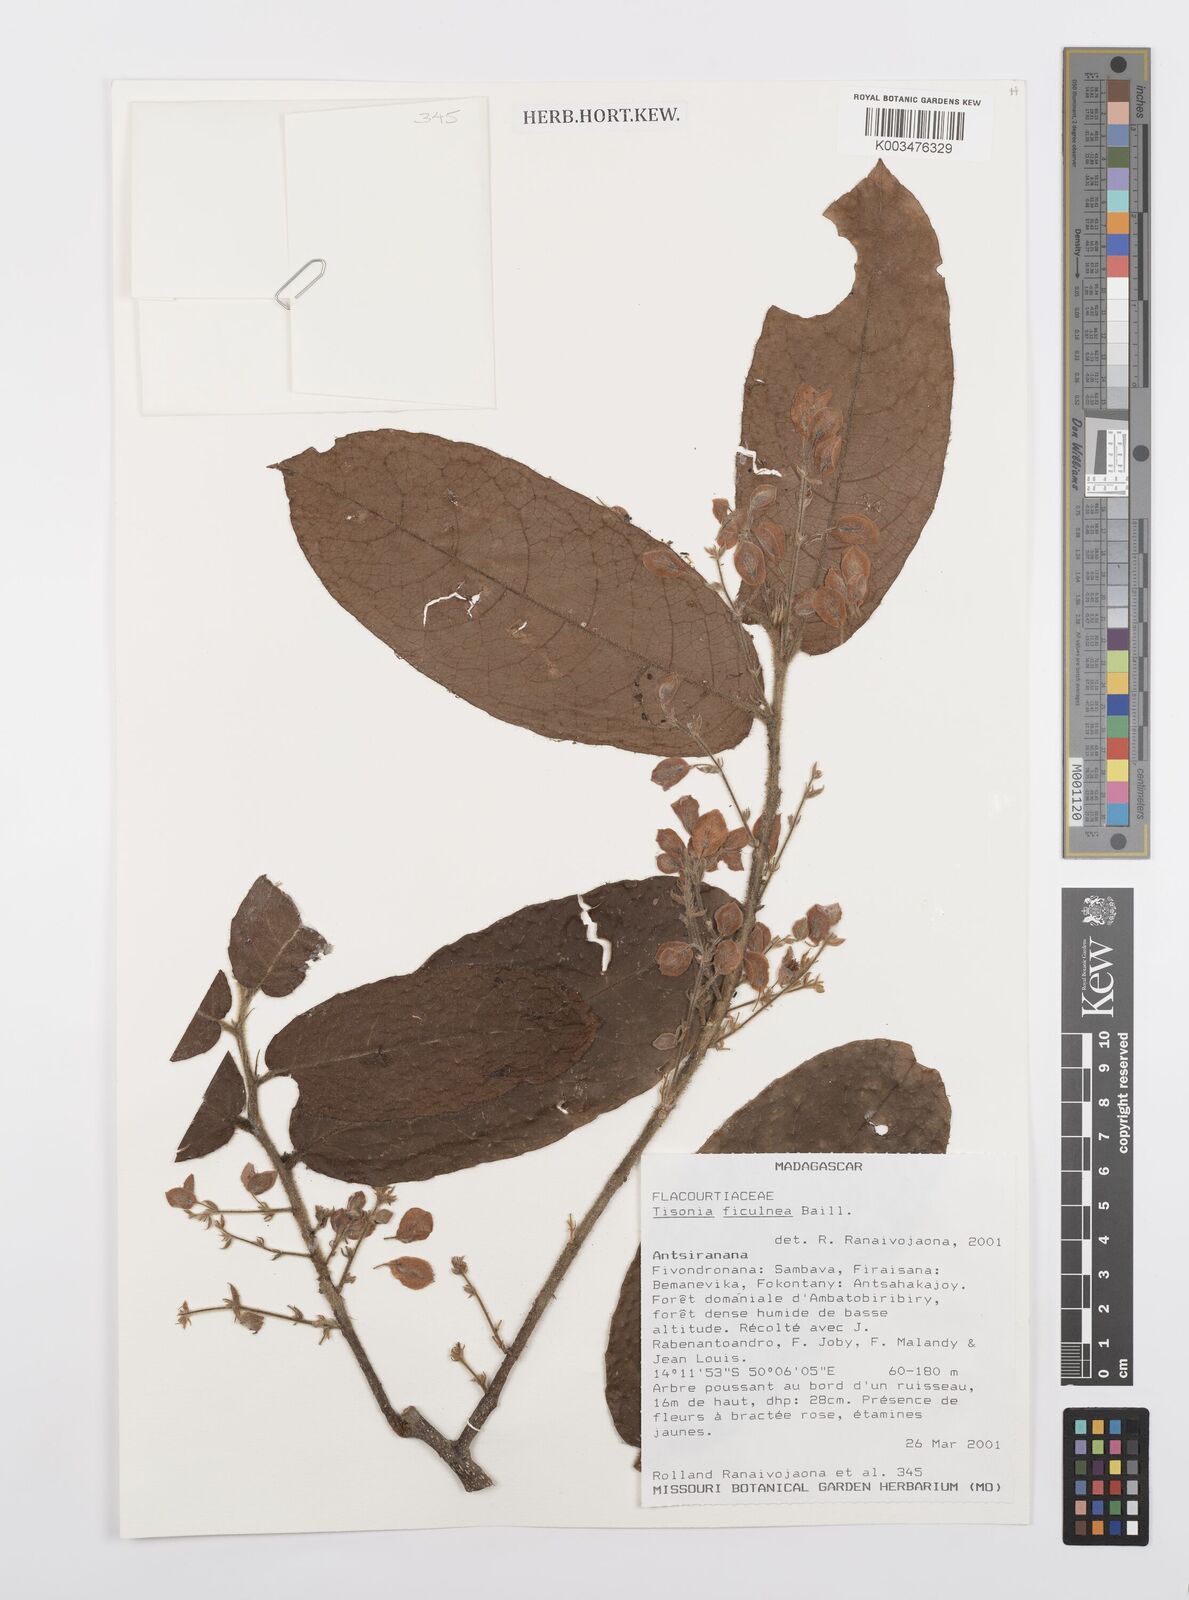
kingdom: Plantae
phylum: Tracheophyta
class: Magnoliopsida
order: Malpighiales
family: Salicaceae
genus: Tisonia
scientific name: Tisonia ficulnea
